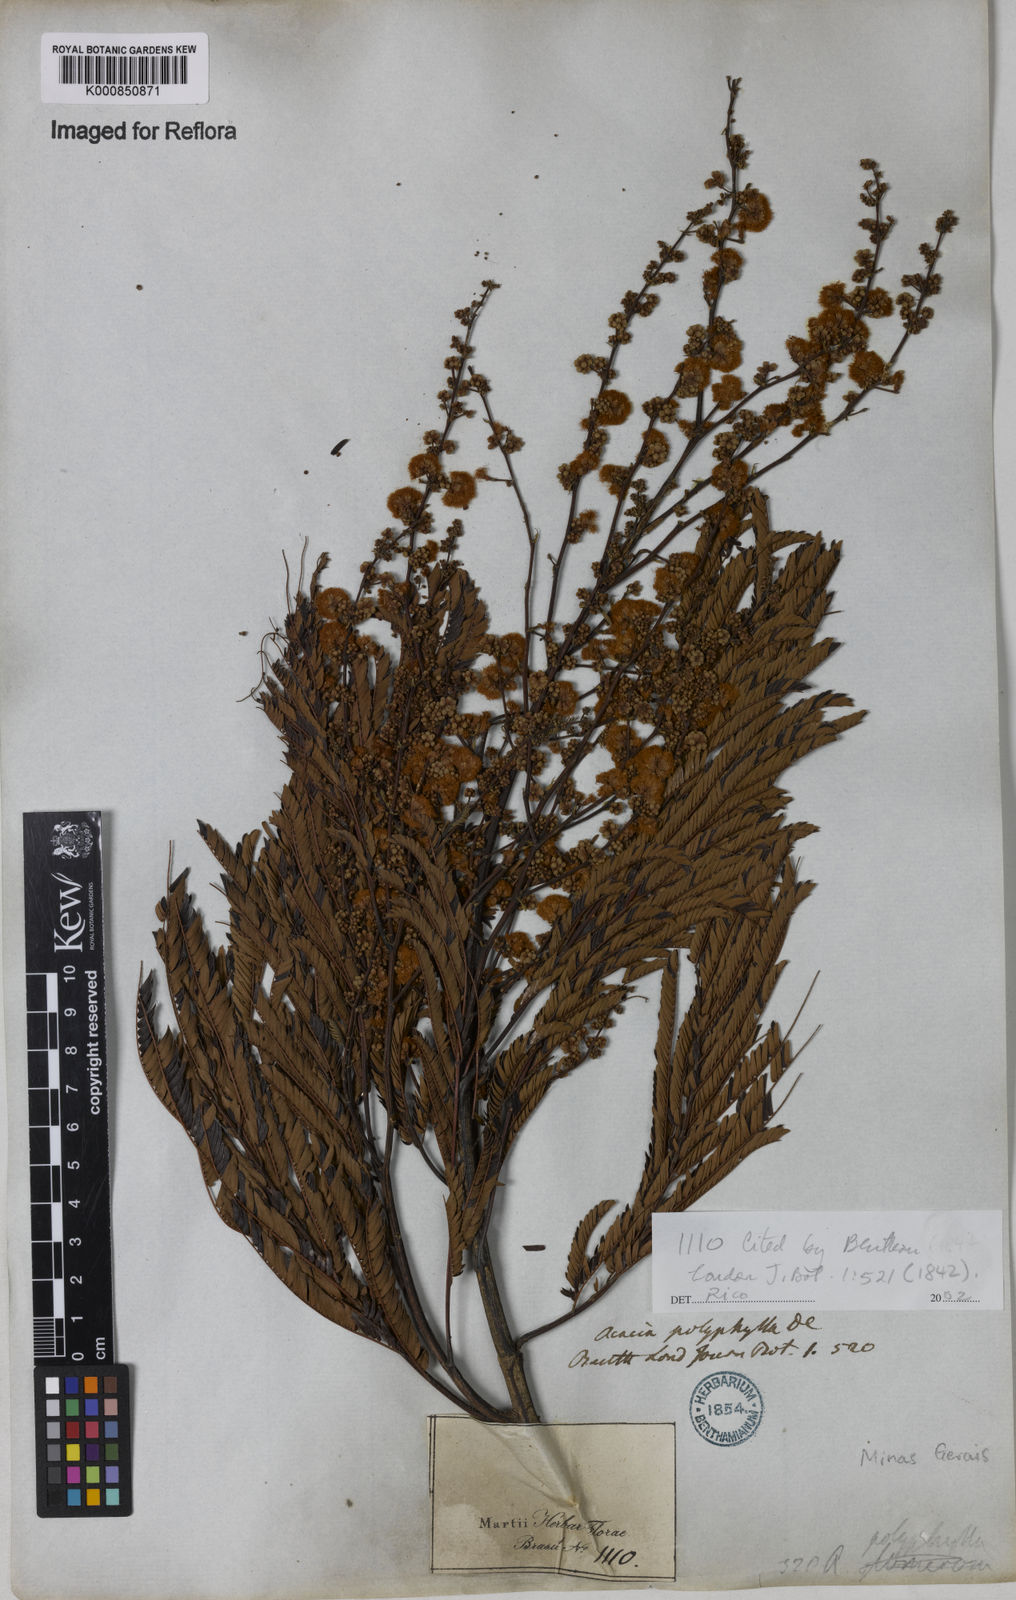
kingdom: Plantae
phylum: Tracheophyta
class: Magnoliopsida
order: Fabales
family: Fabaceae
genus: Senegalia
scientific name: Senegalia polyphylla
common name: White-tamarind
